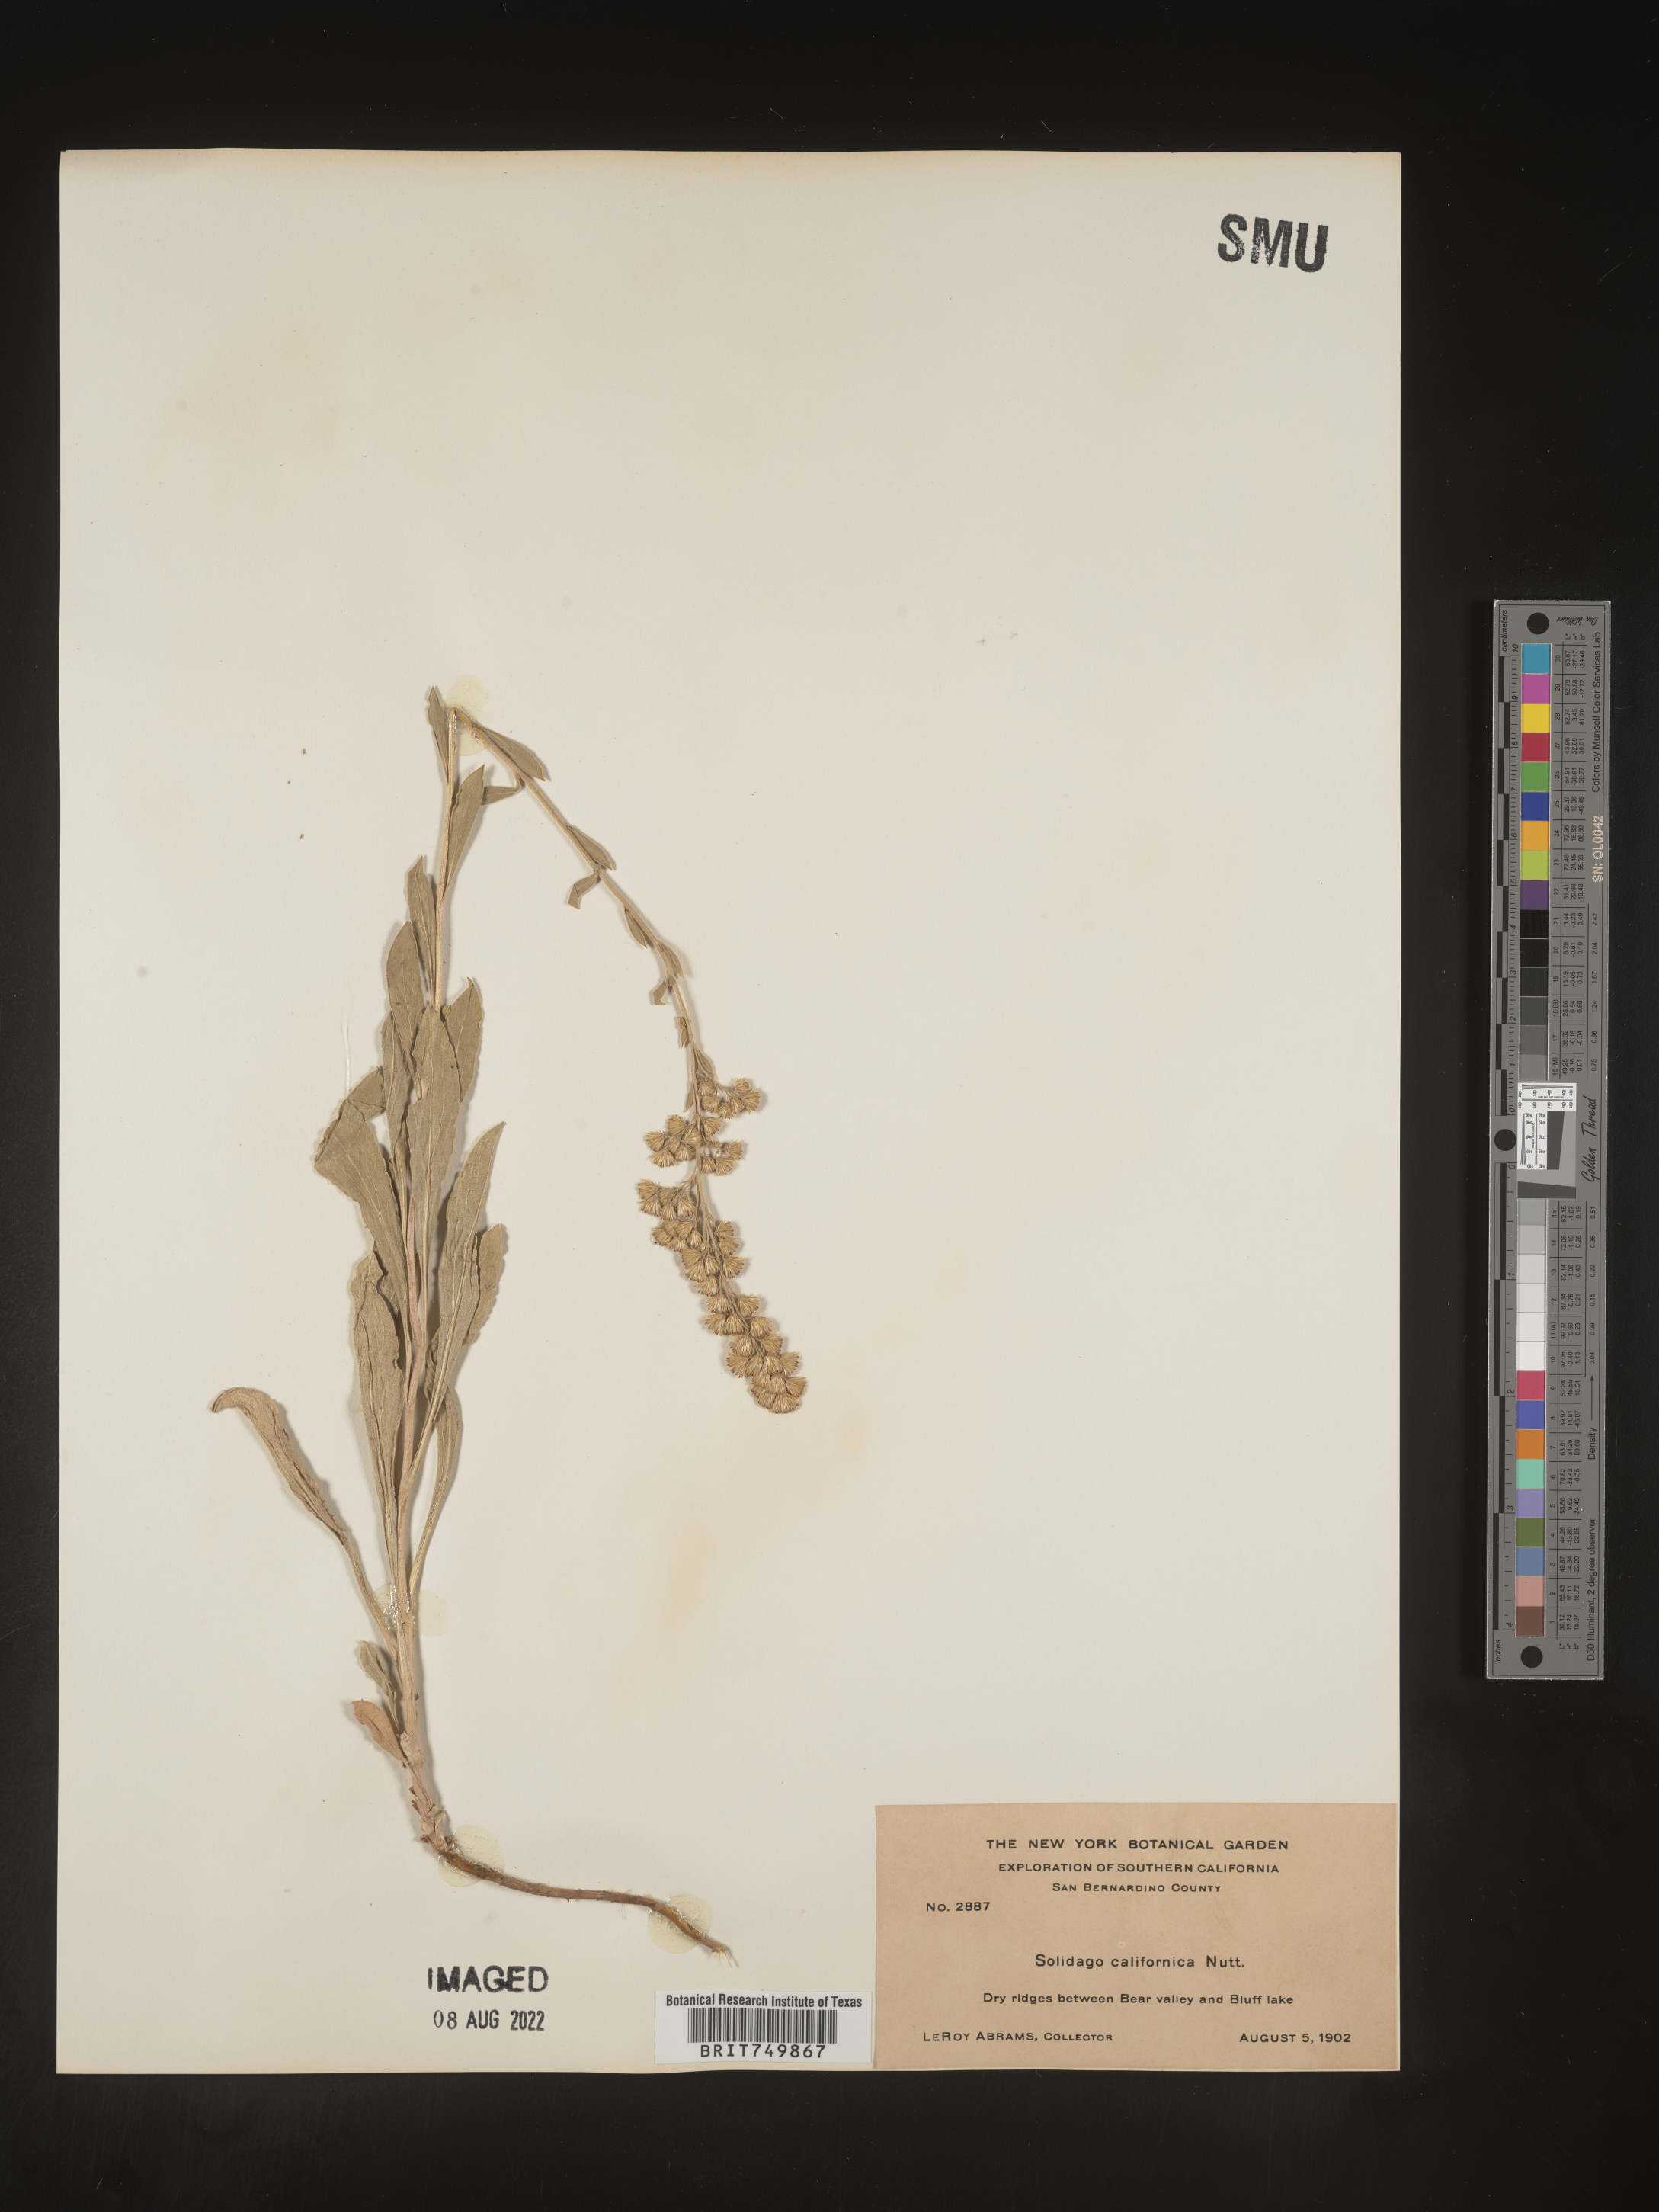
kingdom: Plantae
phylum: Tracheophyta
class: Magnoliopsida
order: Asterales
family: Asteraceae
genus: Solidago
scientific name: Solidago californica
